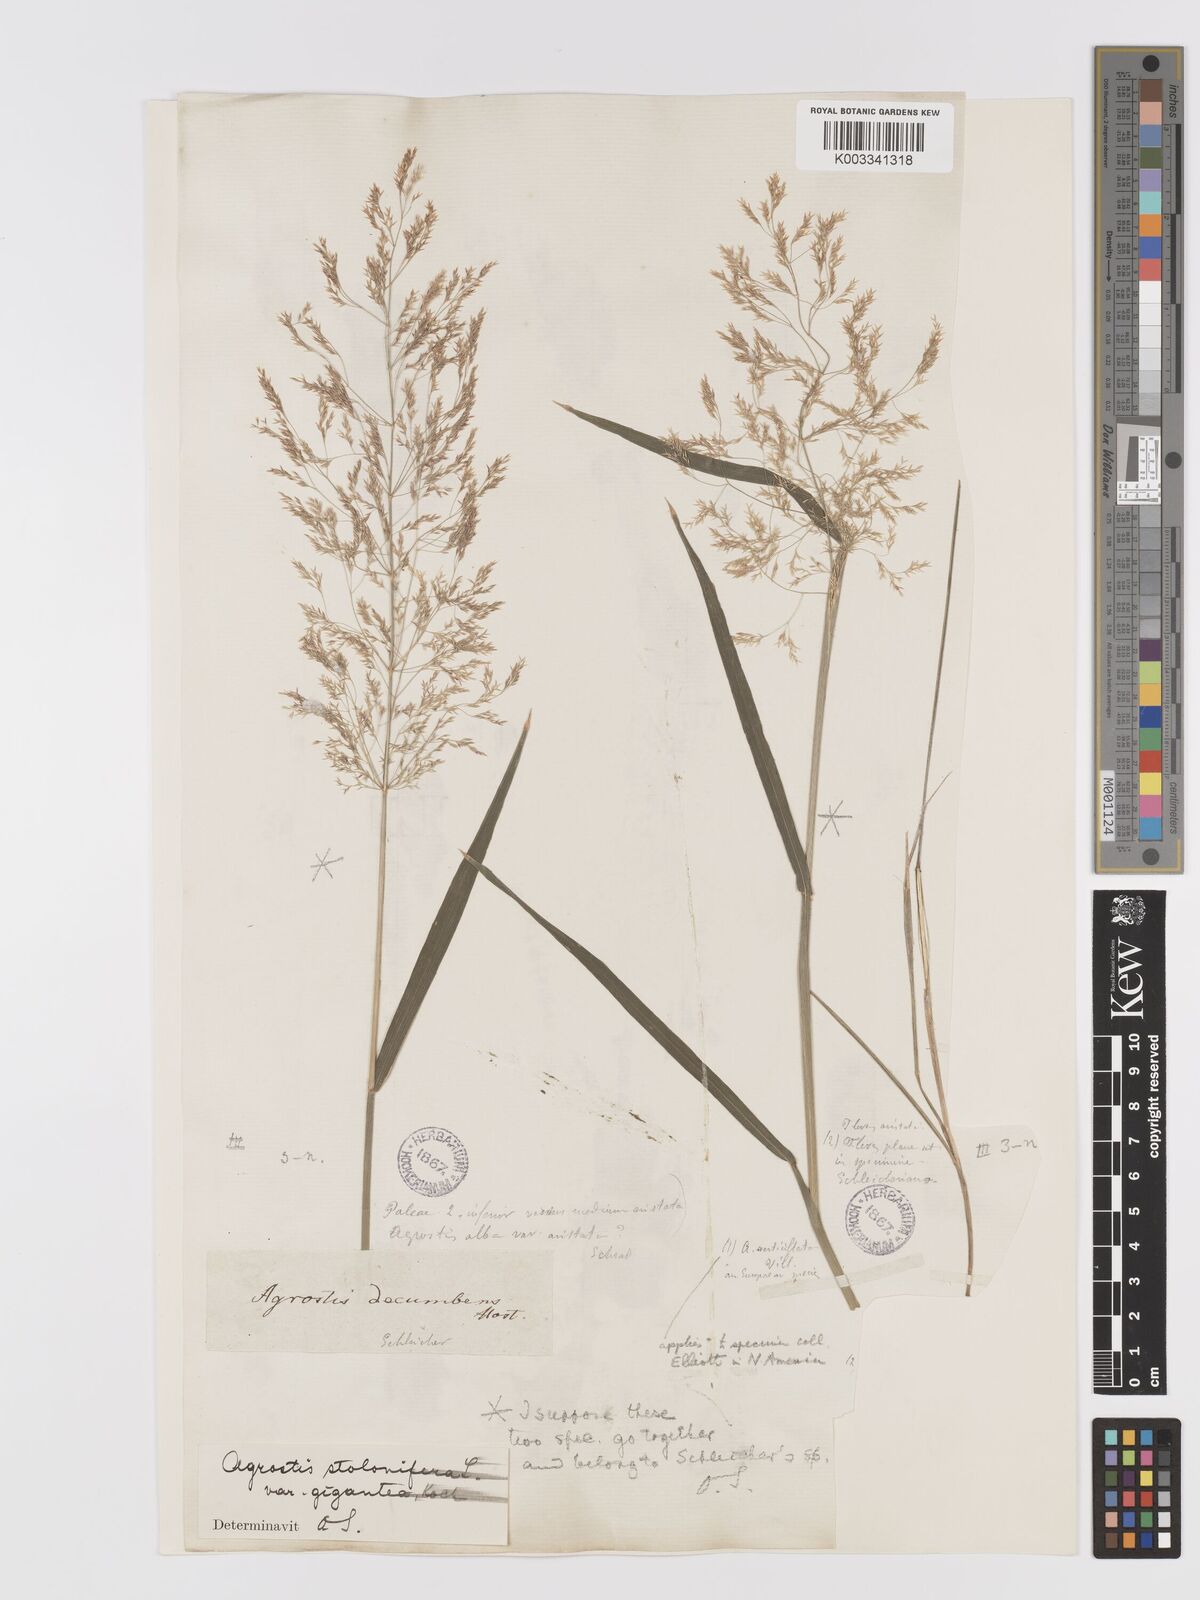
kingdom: Plantae
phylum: Tracheophyta
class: Liliopsida
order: Poales
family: Poaceae
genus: Agrostis
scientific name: Agrostis gigantea
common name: Black bent
